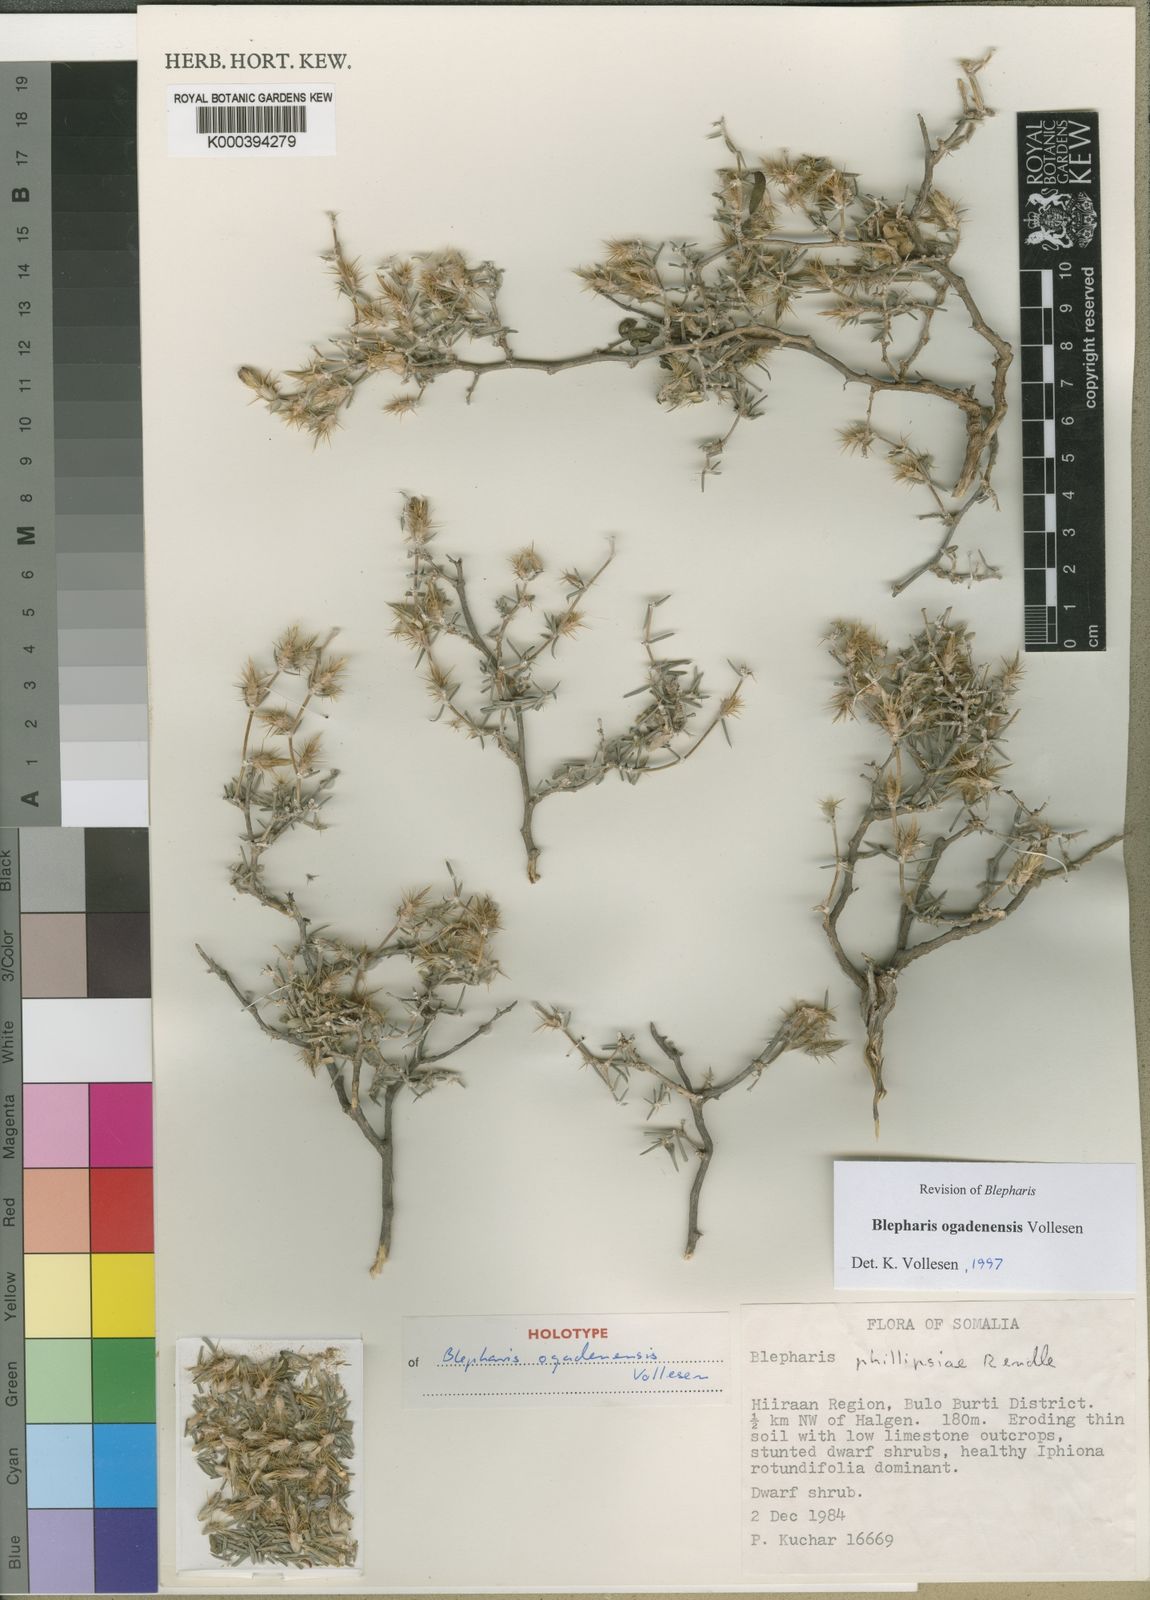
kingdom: Plantae
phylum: Tracheophyta
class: Magnoliopsida
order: Lamiales
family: Acanthaceae
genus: Blepharis
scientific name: Blepharis ogadenensis
